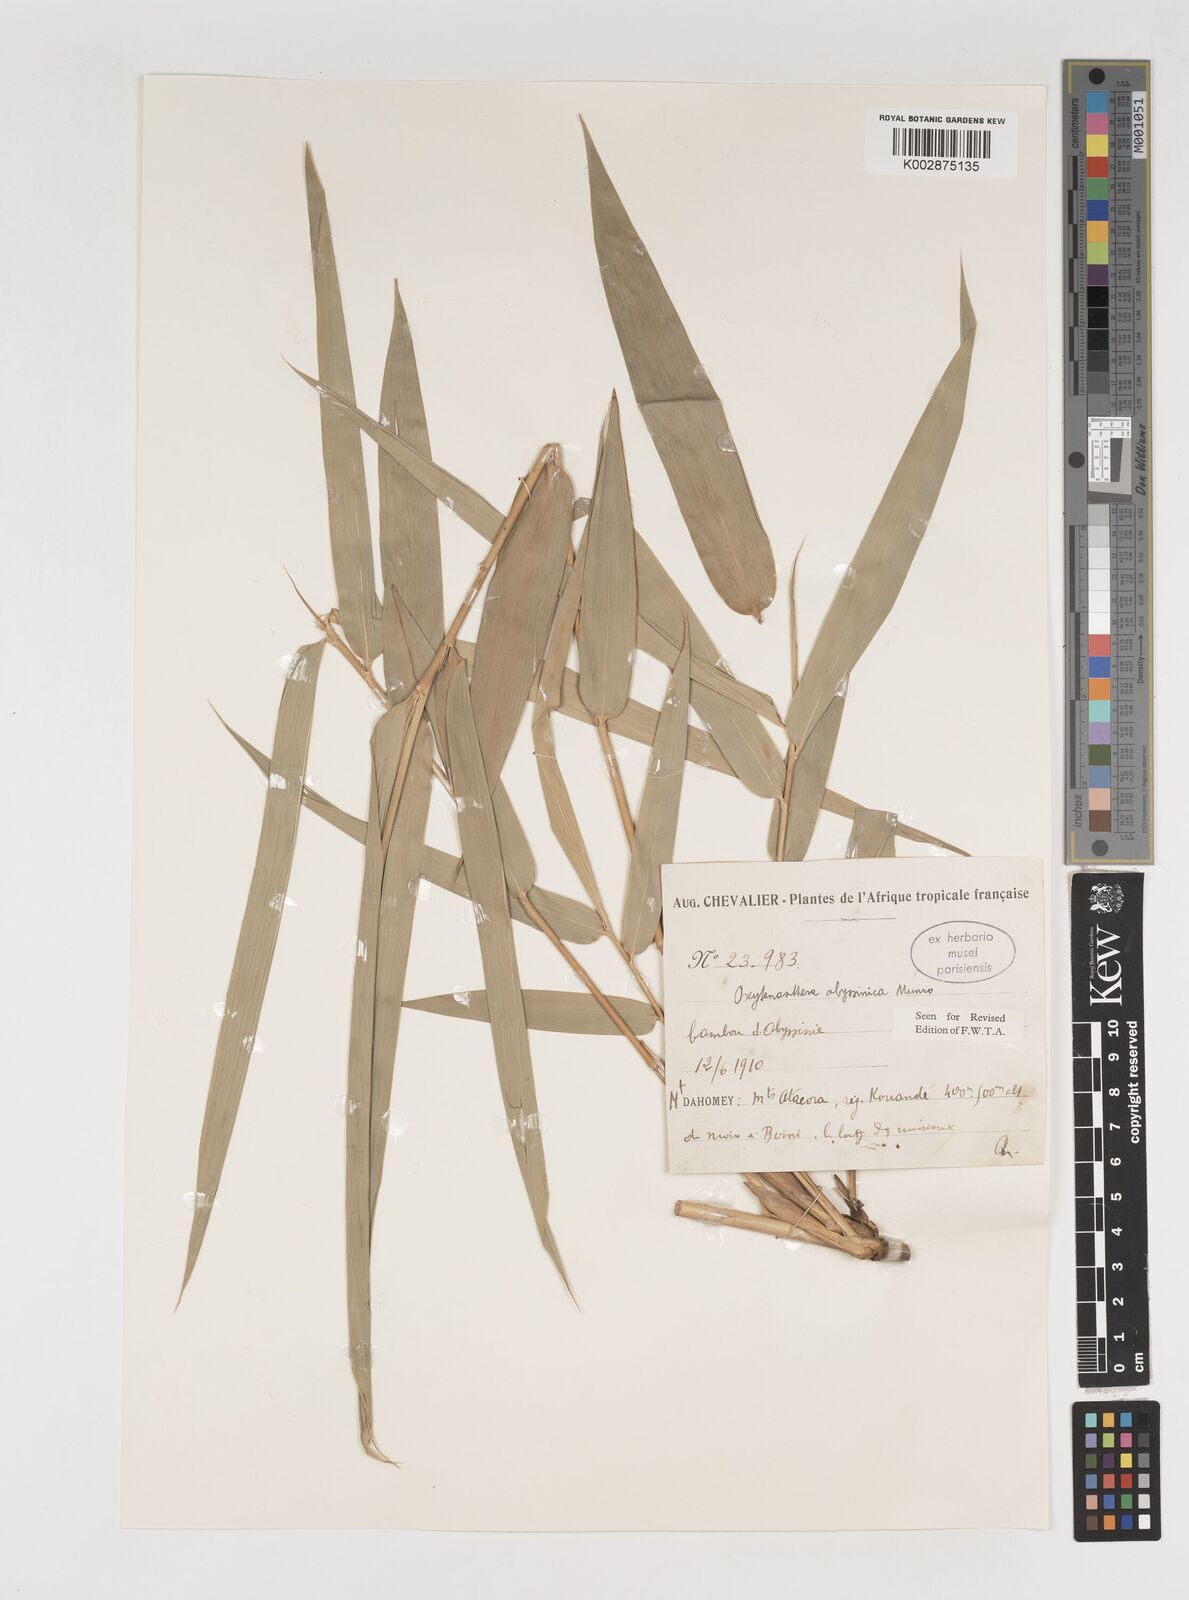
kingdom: Plantae
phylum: Tracheophyta
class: Liliopsida
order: Poales
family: Poaceae
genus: Oxytenanthera
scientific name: Oxytenanthera abyssinica
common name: Wine bamboo
